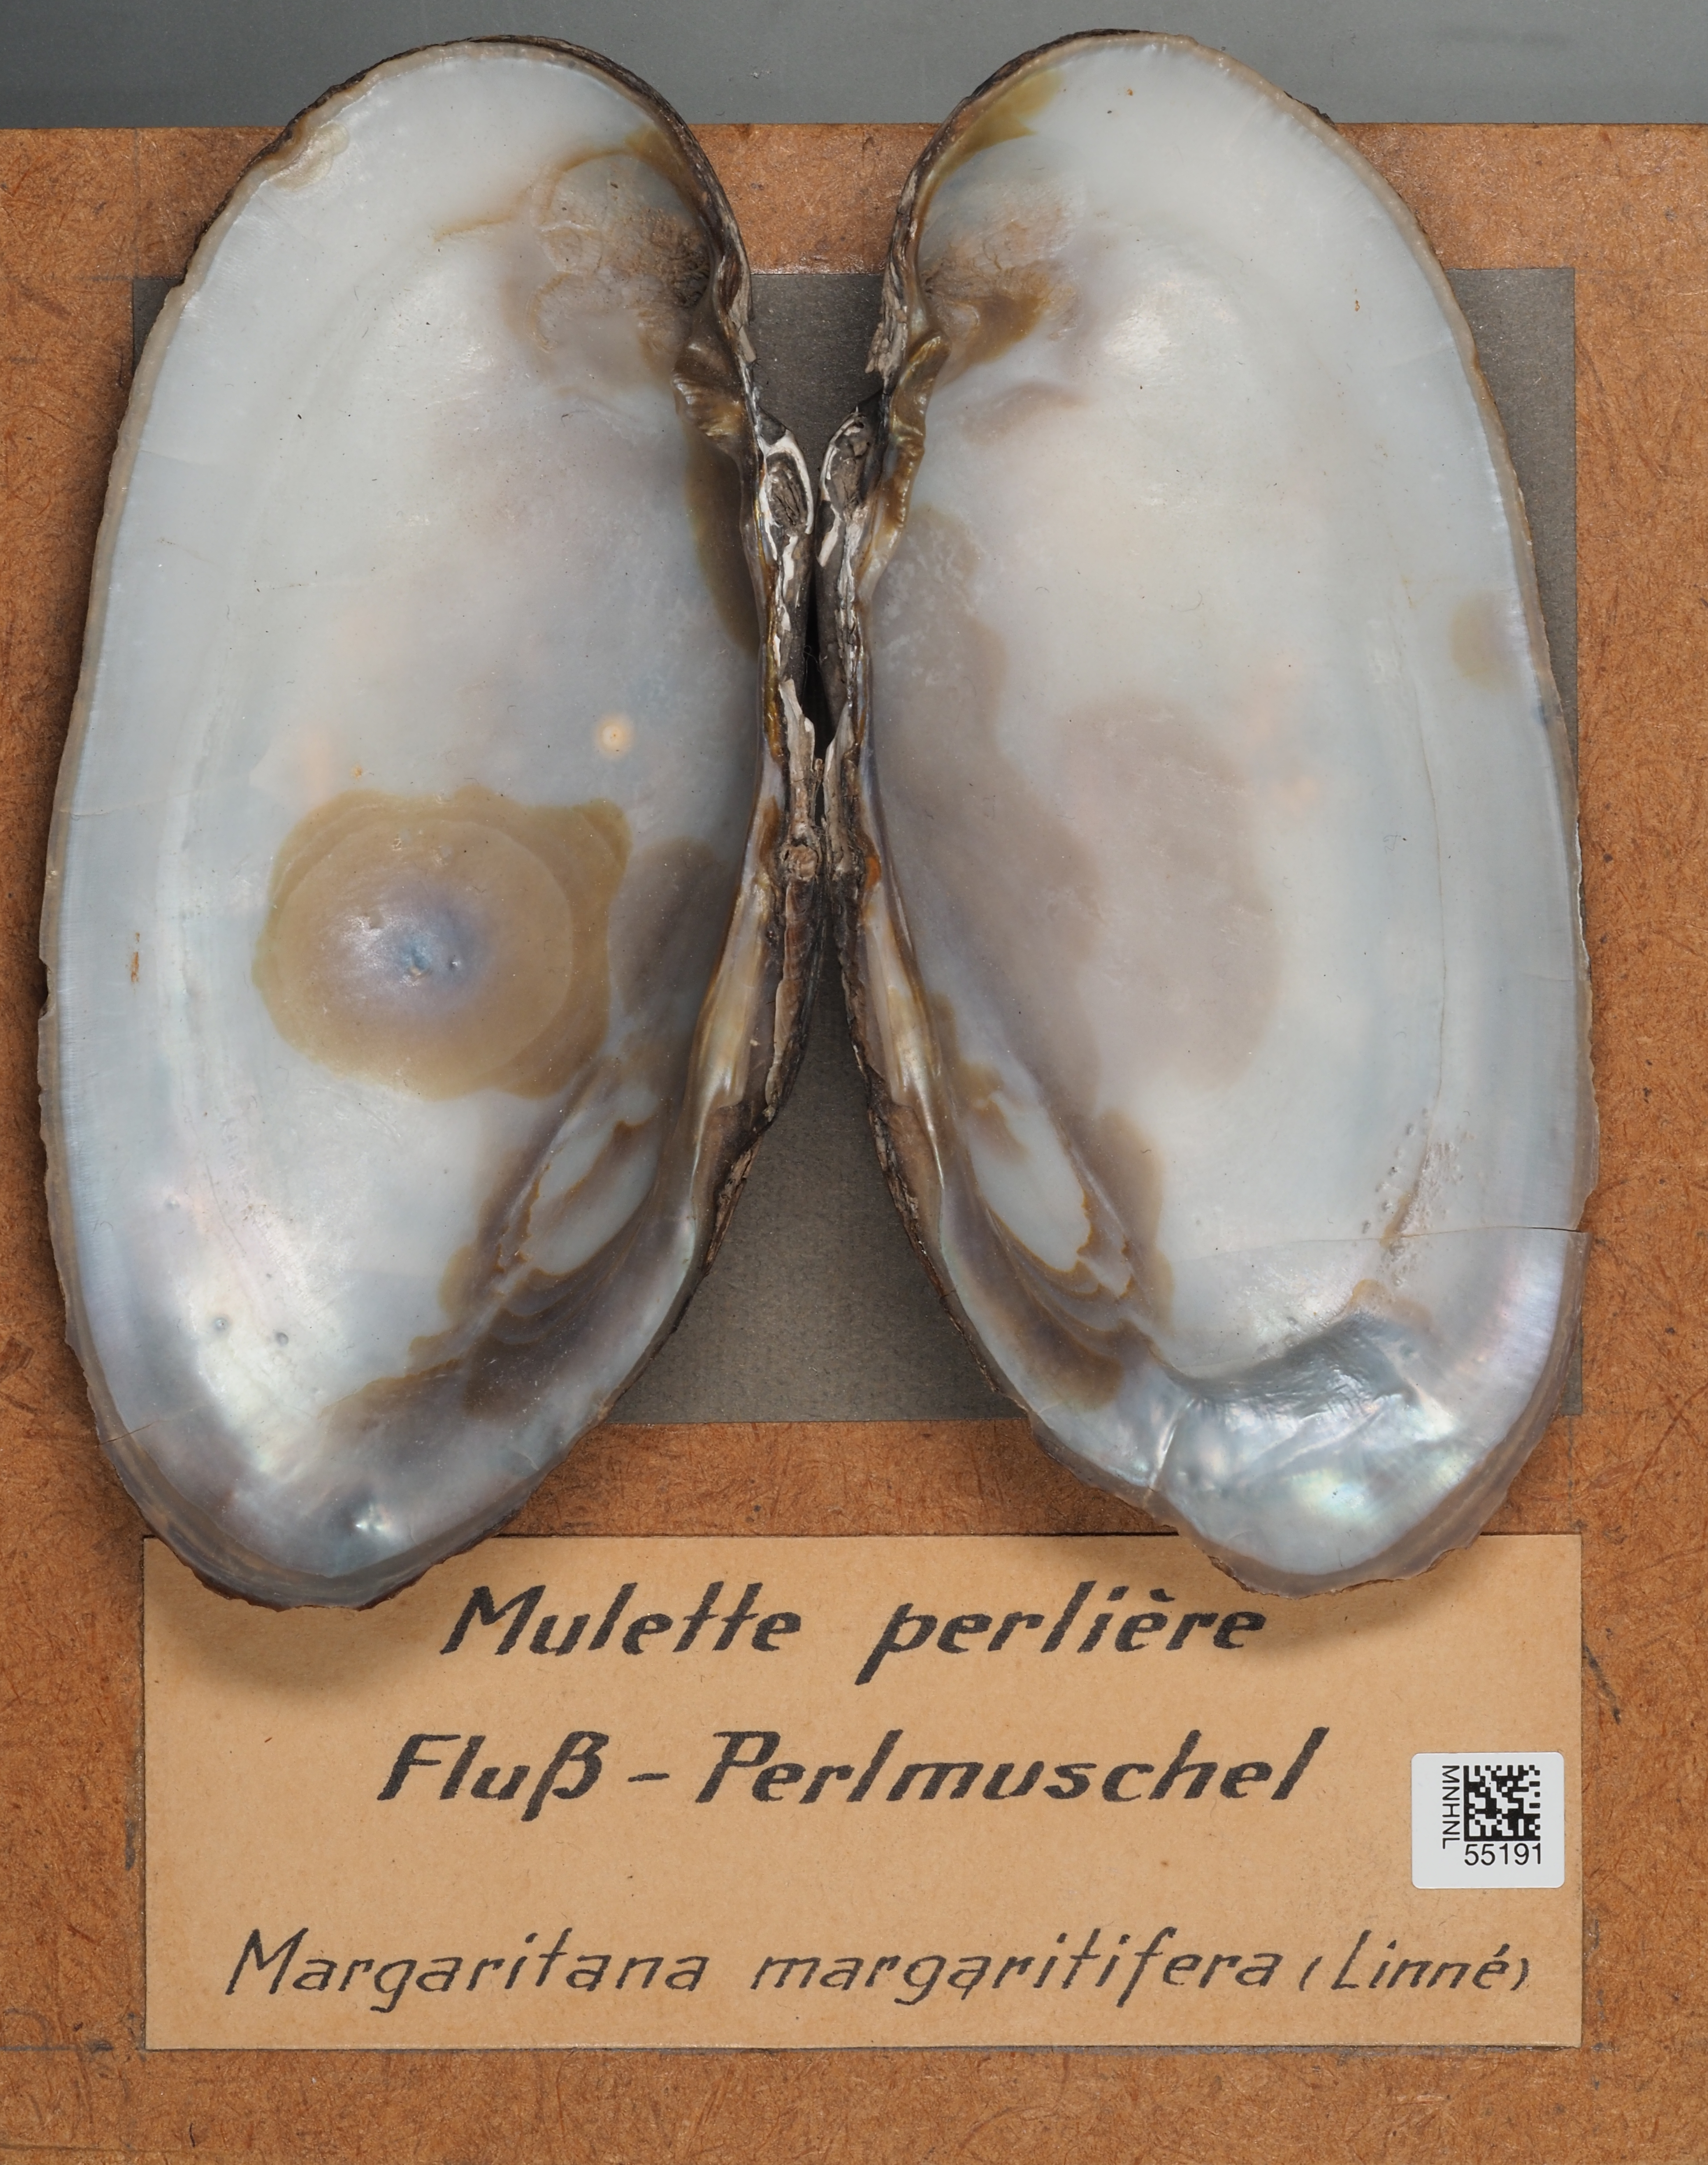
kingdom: Animalia
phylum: Mollusca
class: Bivalvia
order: Unionida
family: Margaritiferidae
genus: Margaritifera
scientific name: Margaritifera margaritifera
